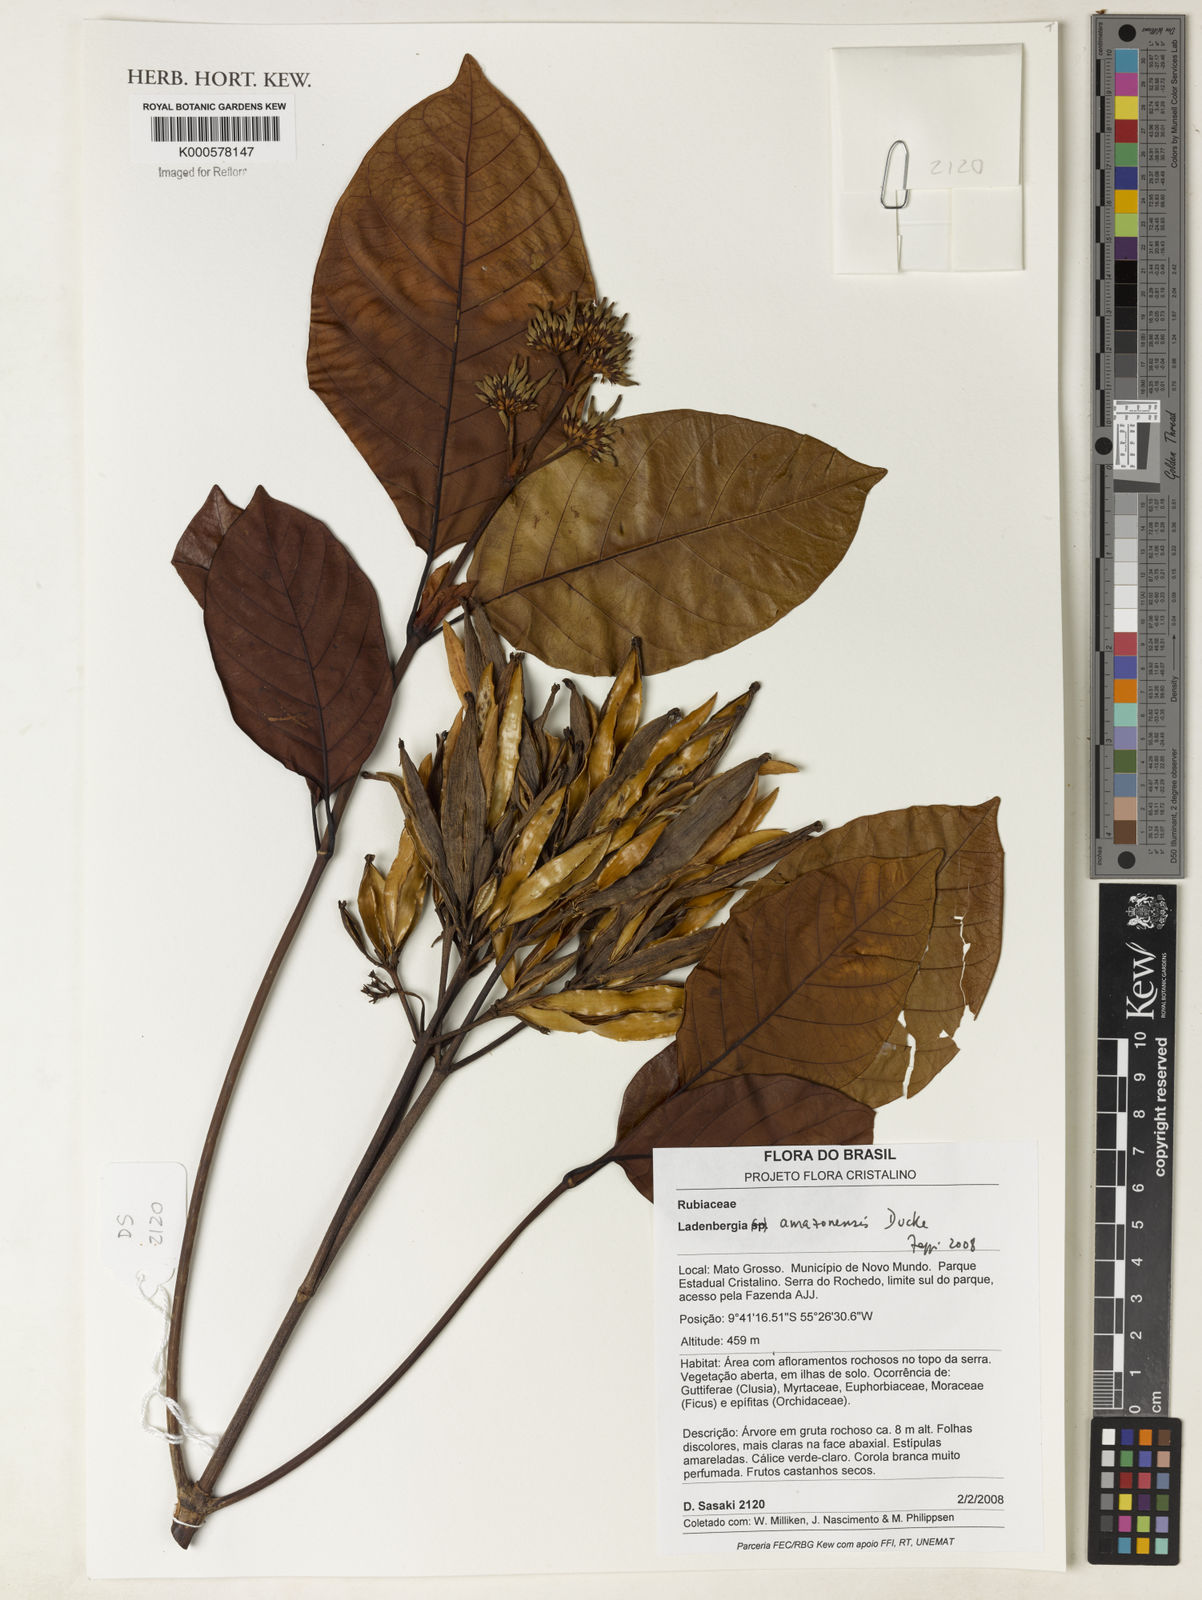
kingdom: Plantae
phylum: Tracheophyta
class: Magnoliopsida
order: Gentianales
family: Rubiaceae
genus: Ladenbergia
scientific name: Ladenbergia amazonensis
